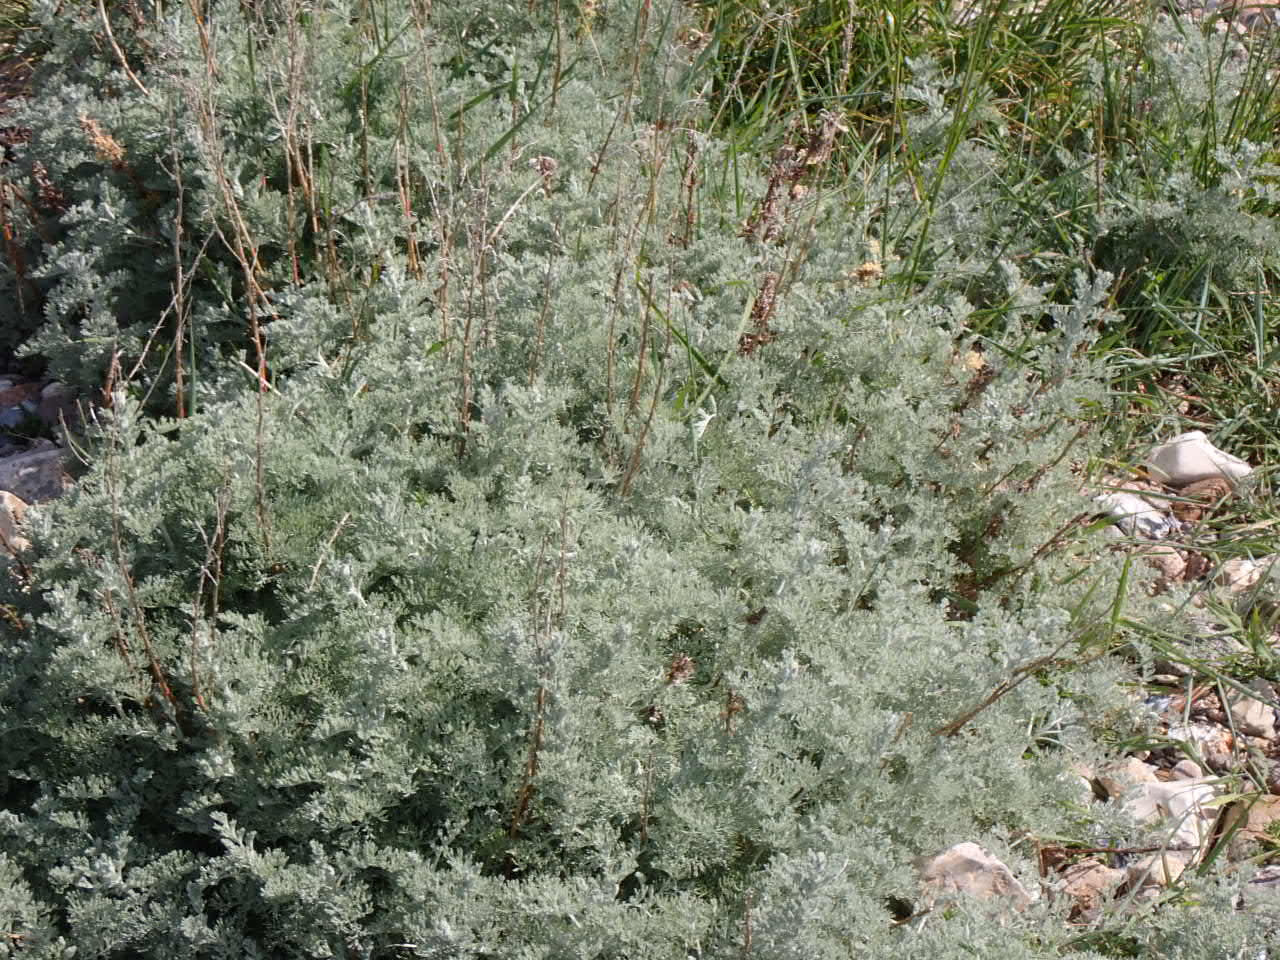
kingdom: Plantae
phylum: Tracheophyta
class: Magnoliopsida
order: Asterales
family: Asteraceae
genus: Artemisia
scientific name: Artemisia maritima
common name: Strandmalurt
